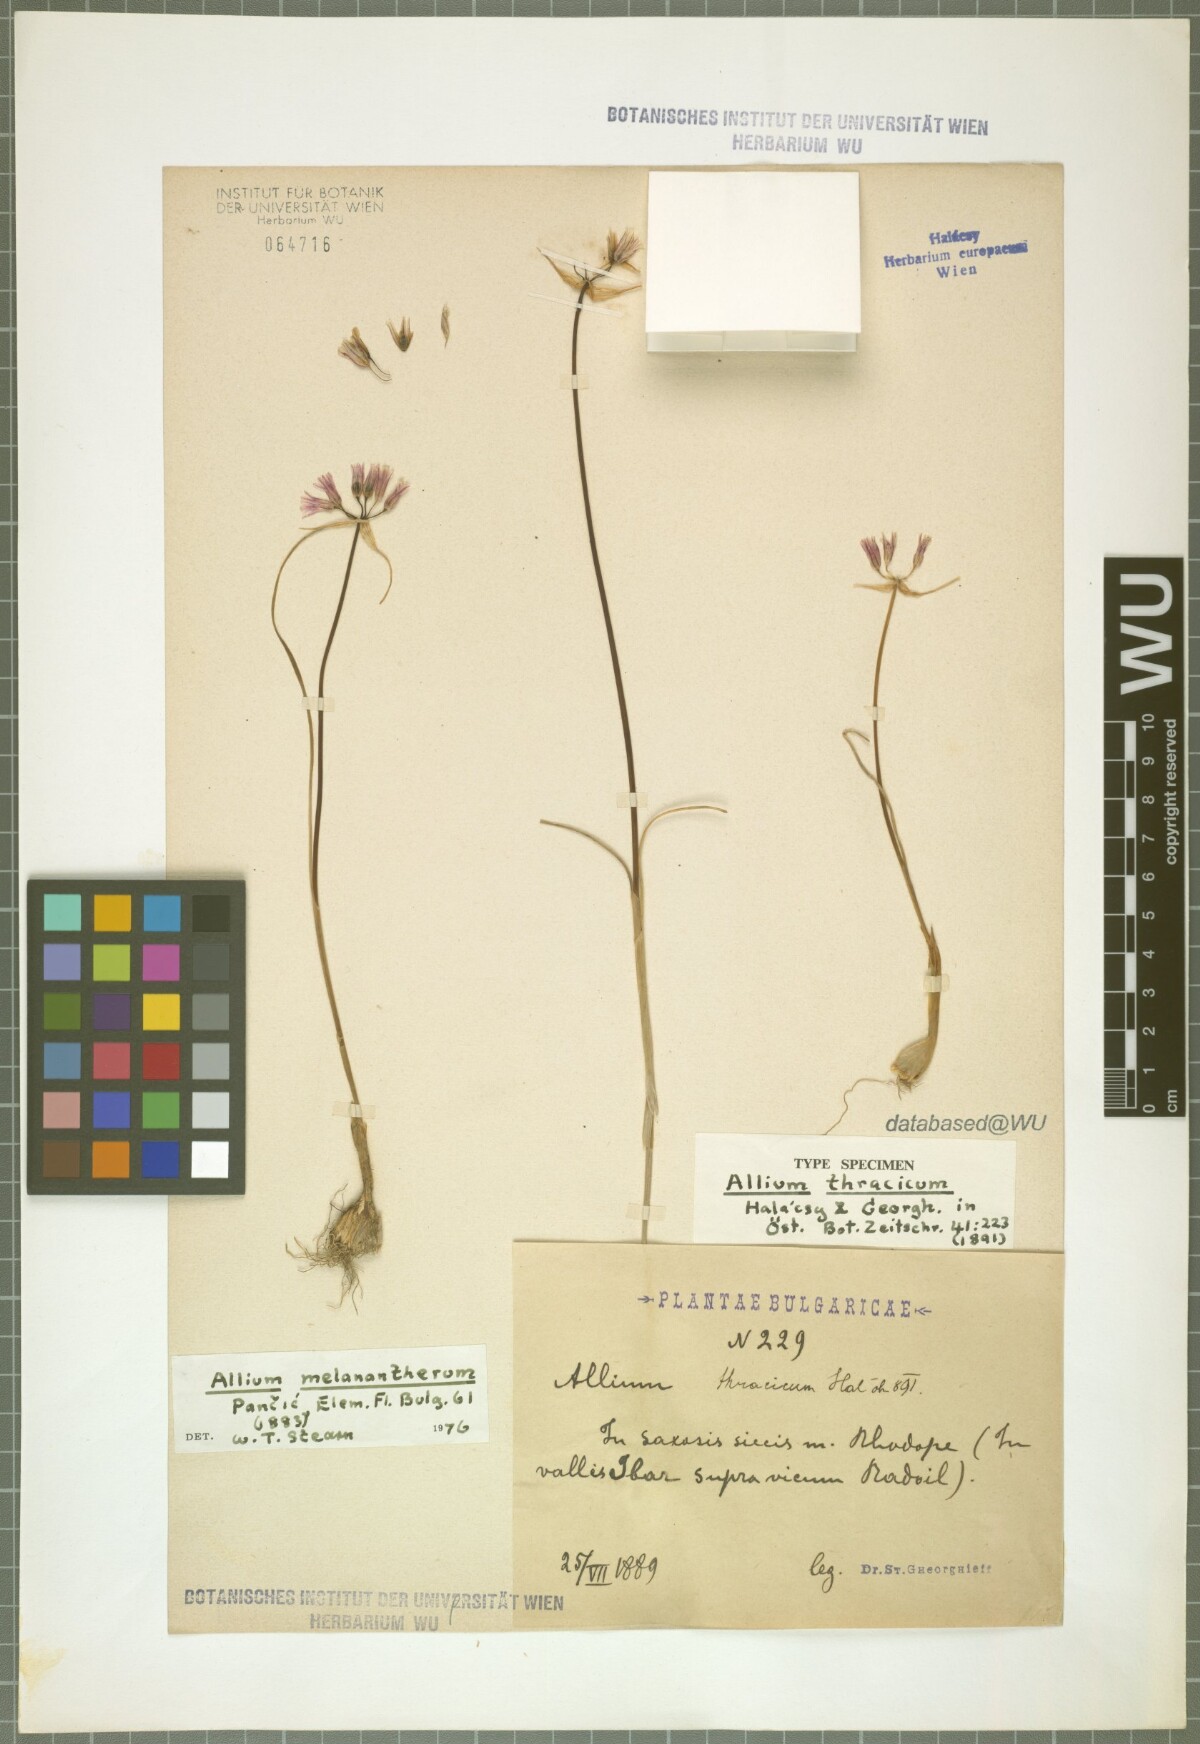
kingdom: Plantae
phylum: Tracheophyta
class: Liliopsida
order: Asparagales
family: Amaryllidaceae
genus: Allium
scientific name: Allium melanantherum
